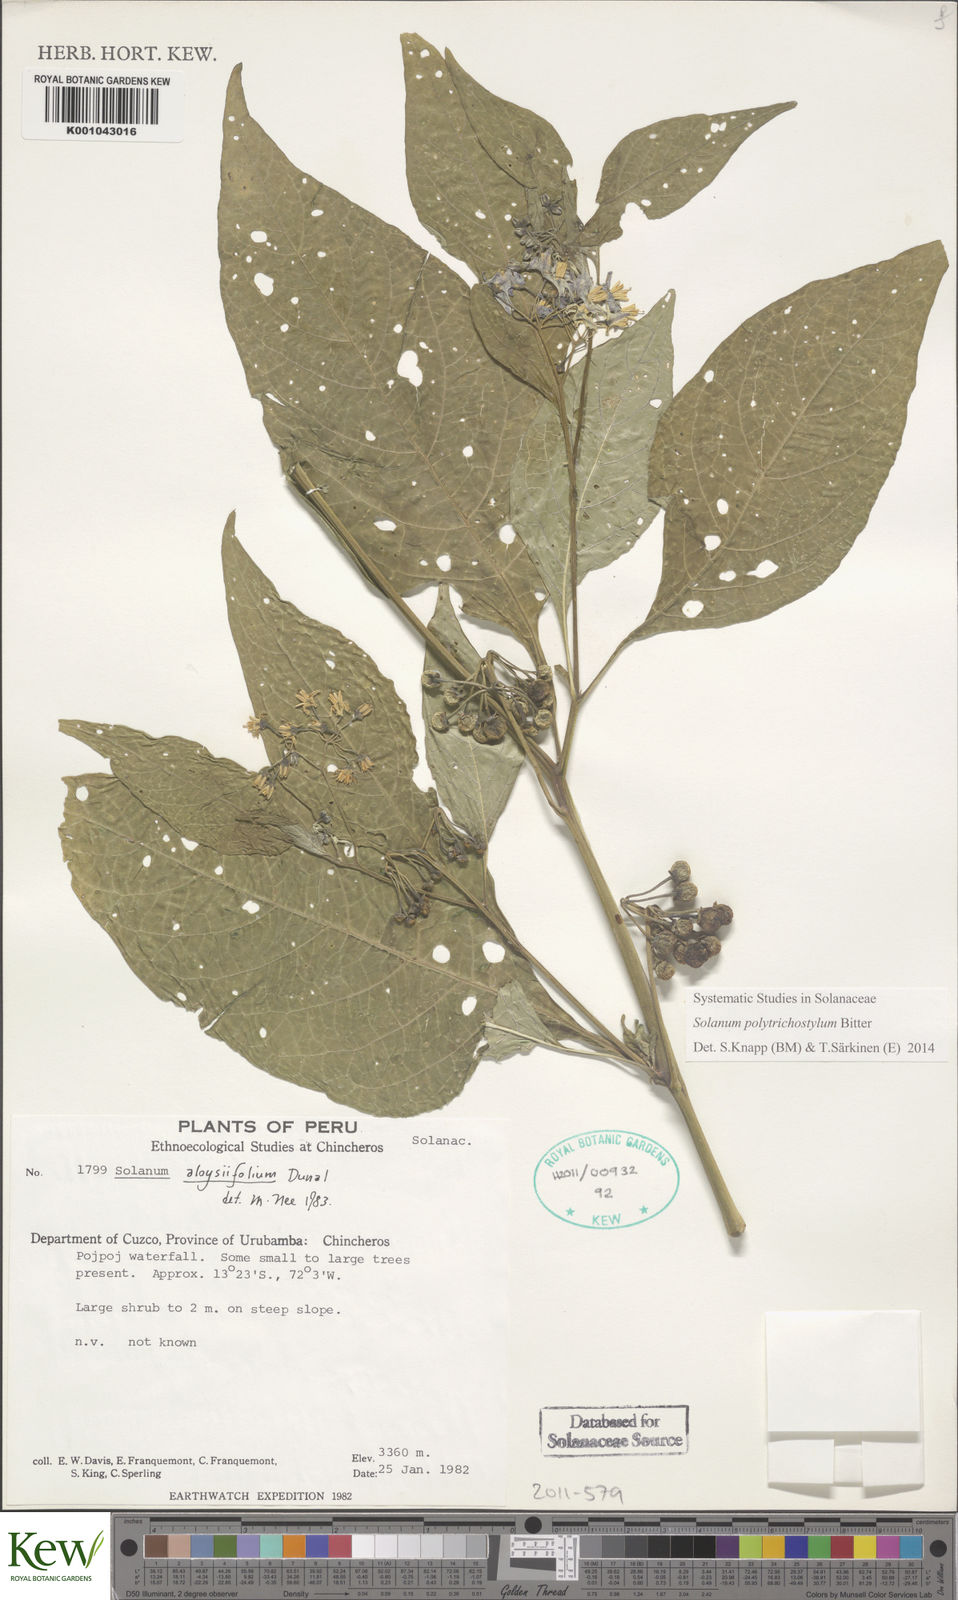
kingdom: Plantae
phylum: Tracheophyta
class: Magnoliopsida
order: Solanales
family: Solanaceae
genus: Solanum
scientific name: Solanum polytrichostylum
